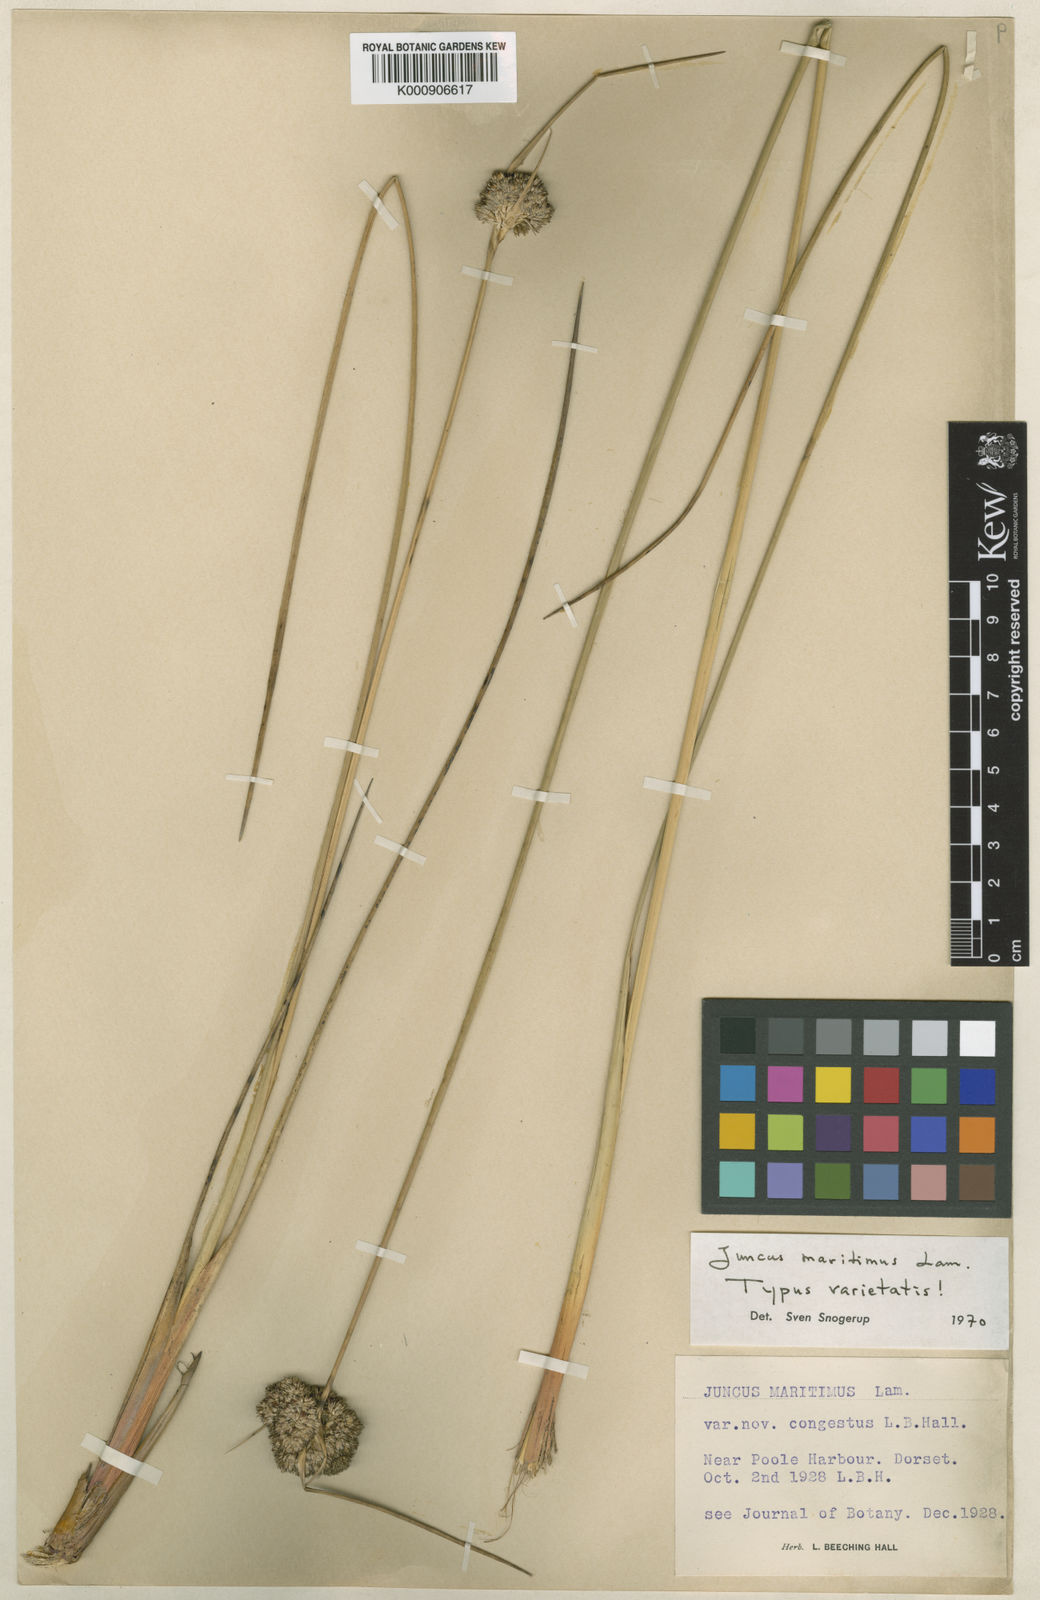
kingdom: Plantae
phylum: Tracheophyta
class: Liliopsida
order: Poales
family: Juncaceae
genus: Juncus
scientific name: Juncus maritimus
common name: Sea rush
